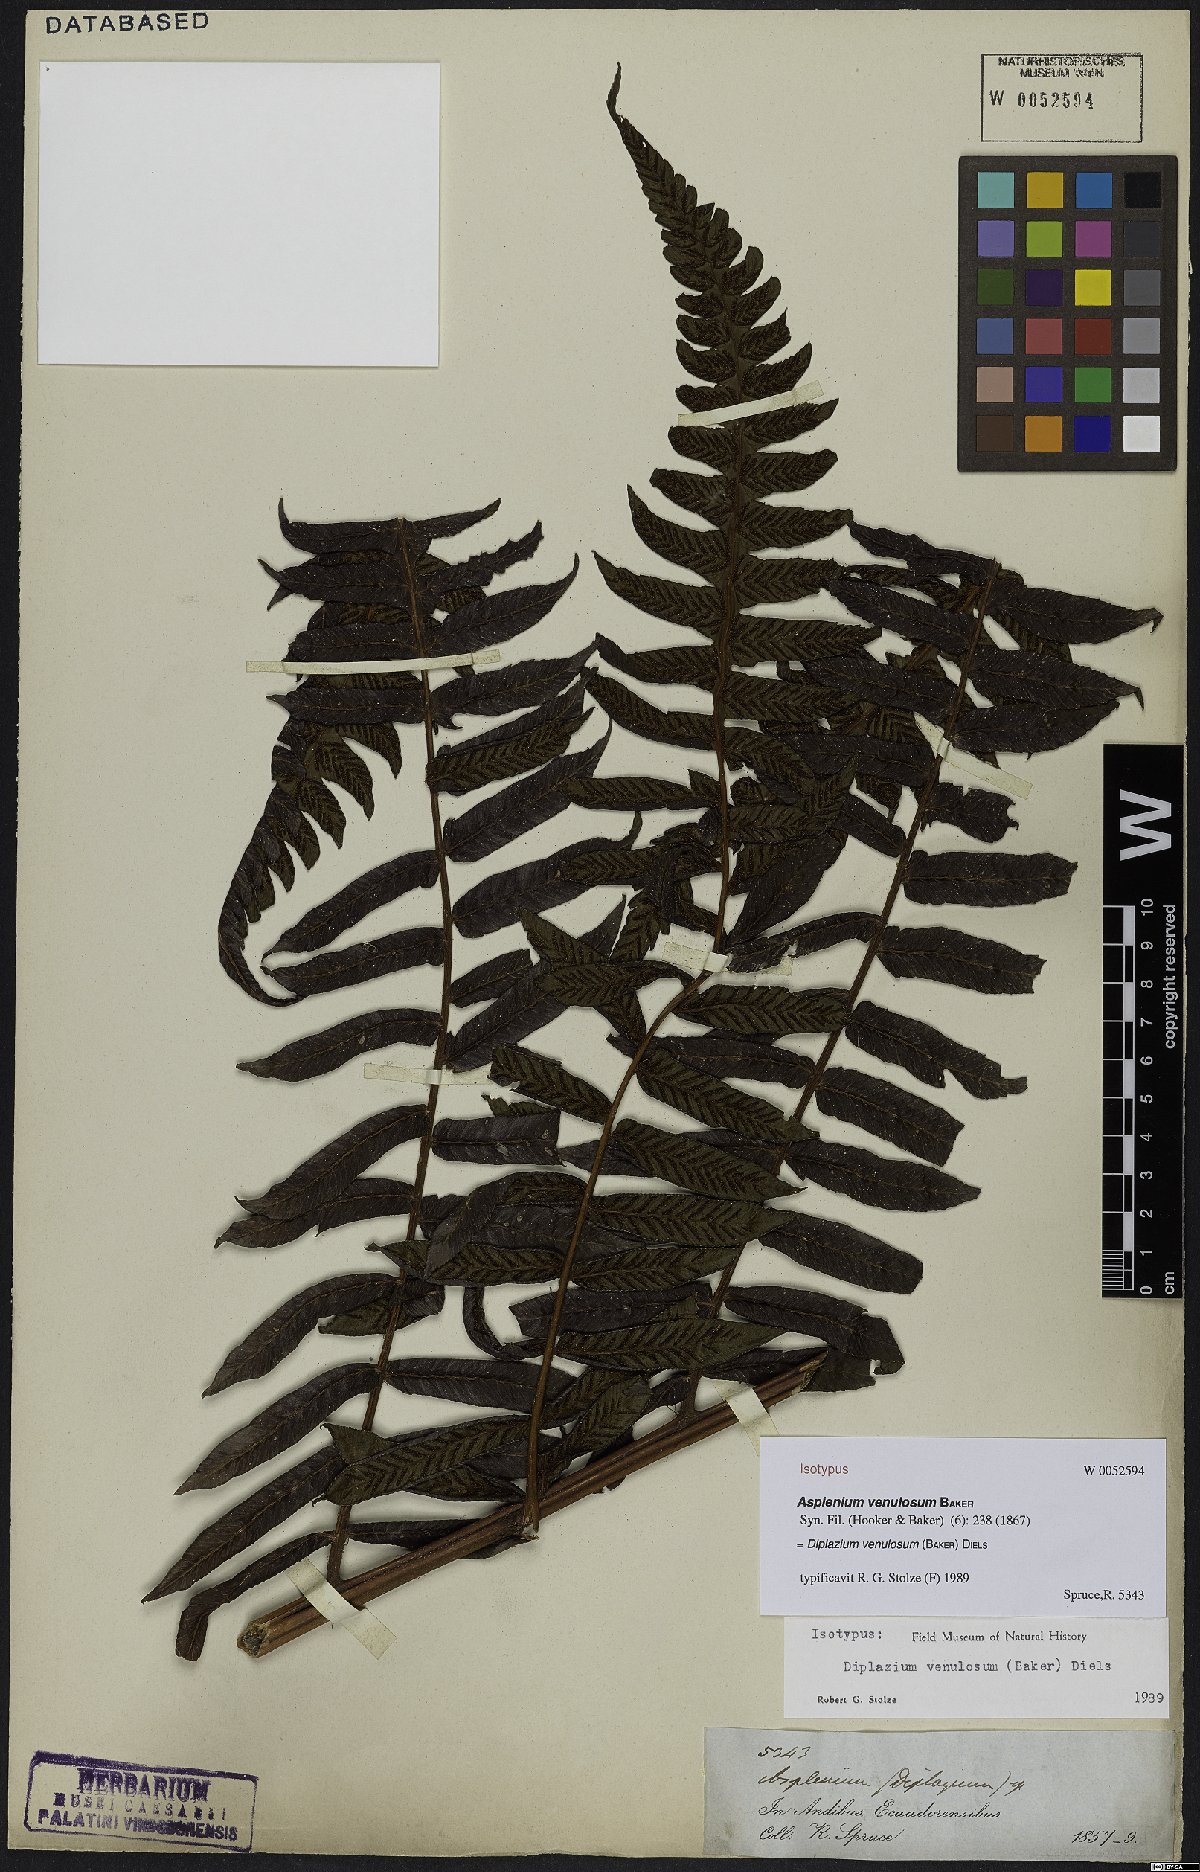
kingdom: Plantae
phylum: Tracheophyta
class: Polypodiopsida
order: Polypodiales
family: Athyriaceae
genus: Diplazium
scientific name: Diplazium venulosum
